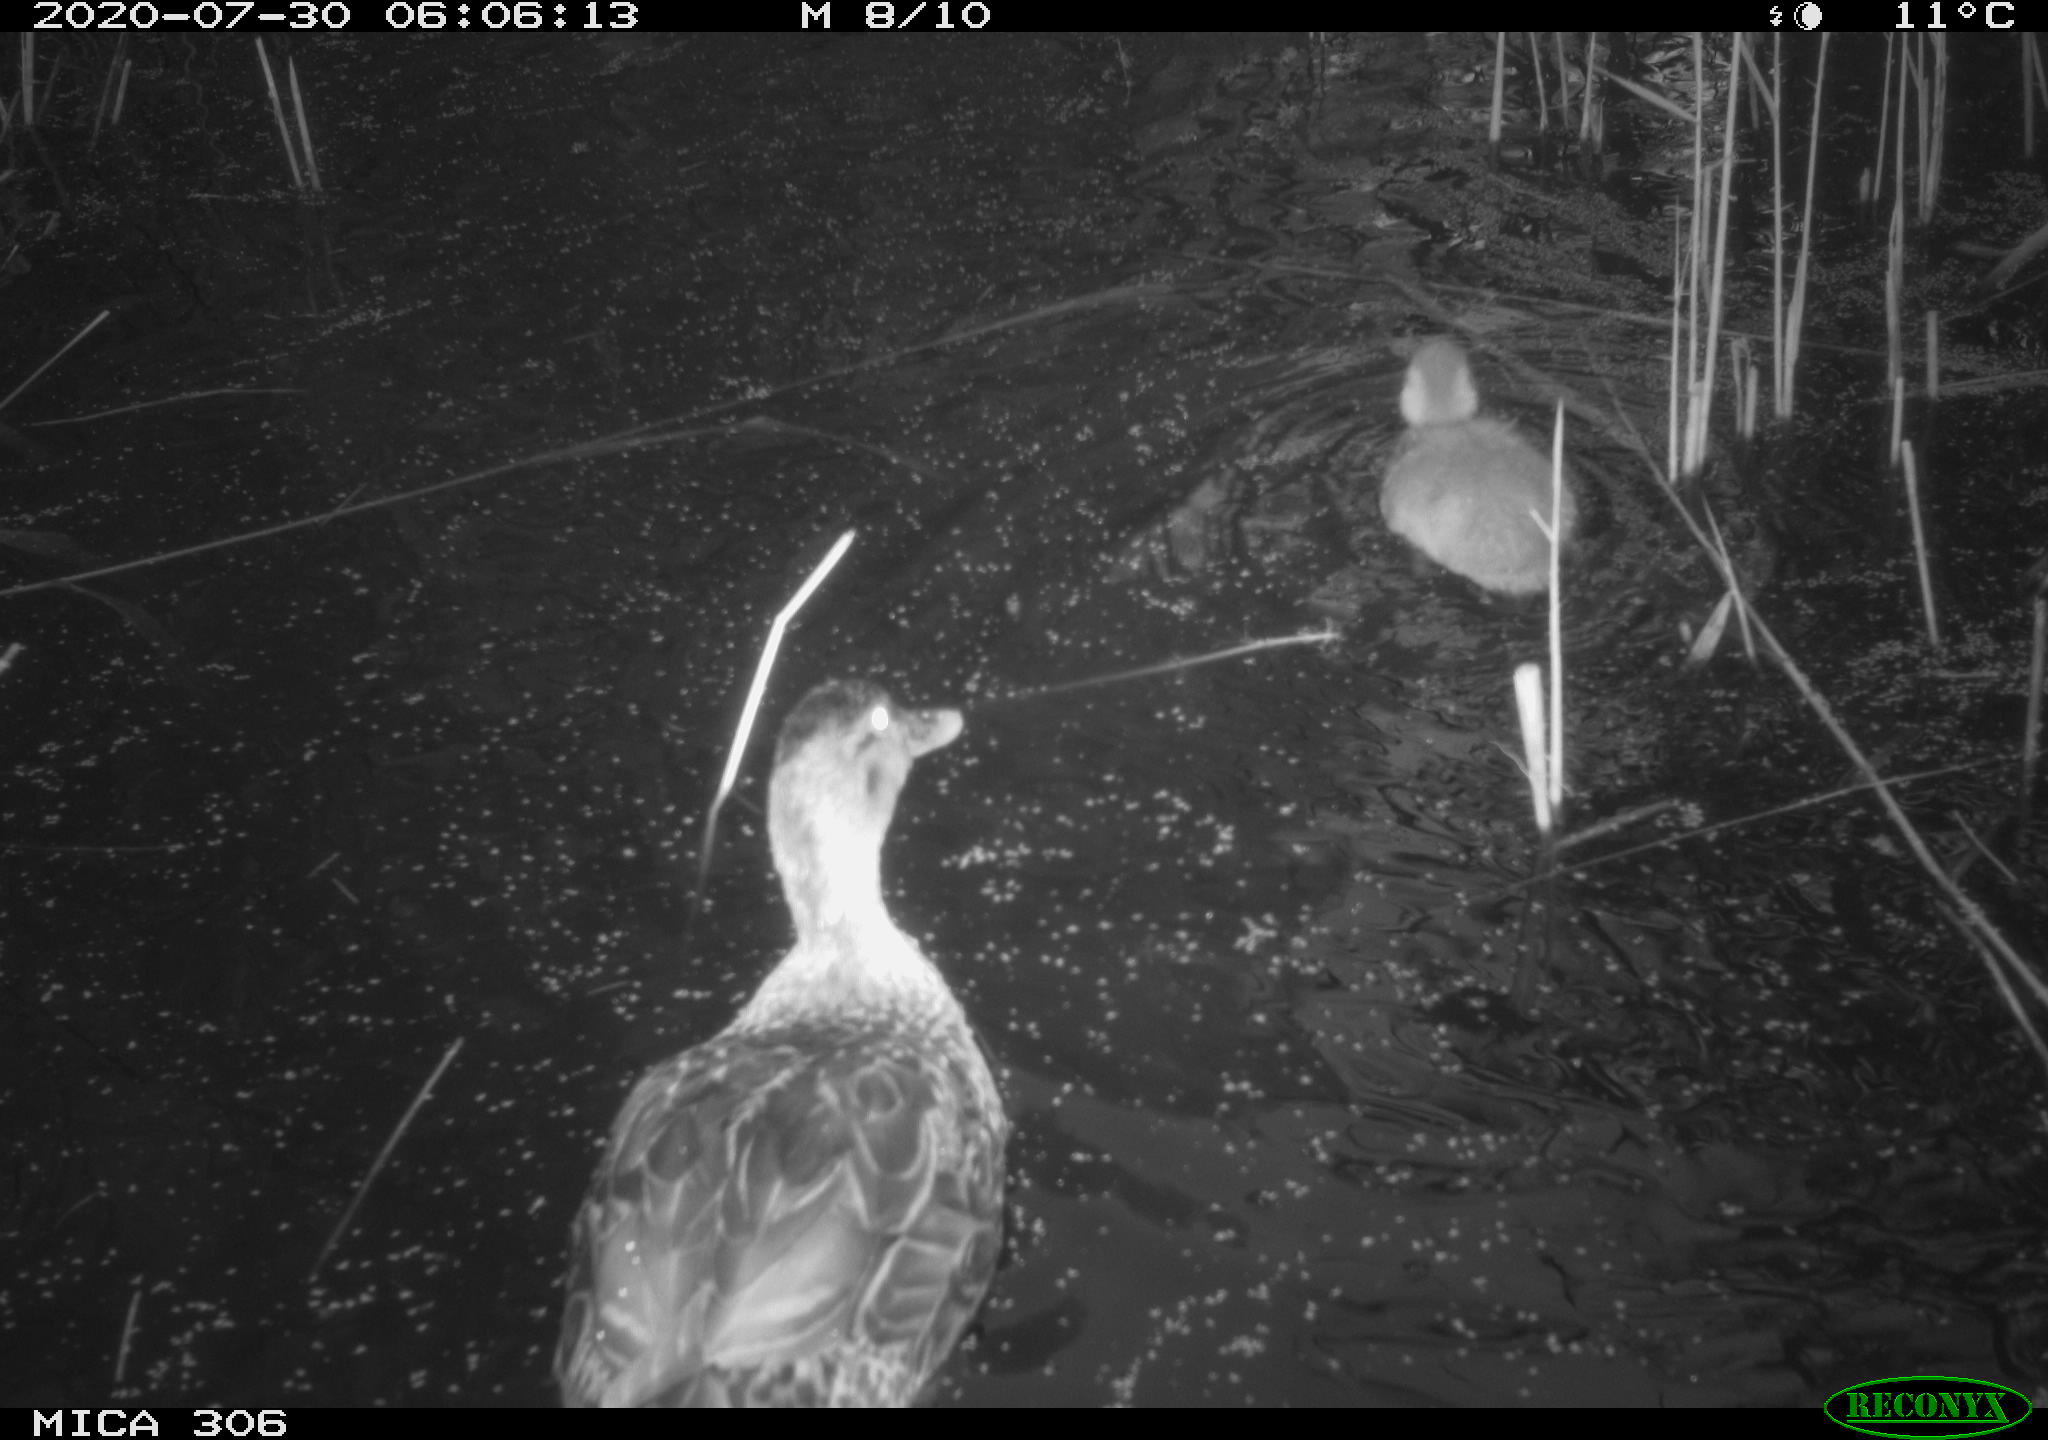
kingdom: Animalia
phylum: Chordata
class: Aves
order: Anseriformes
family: Anatidae
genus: Anas
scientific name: Anas platyrhynchos
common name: Mallard
